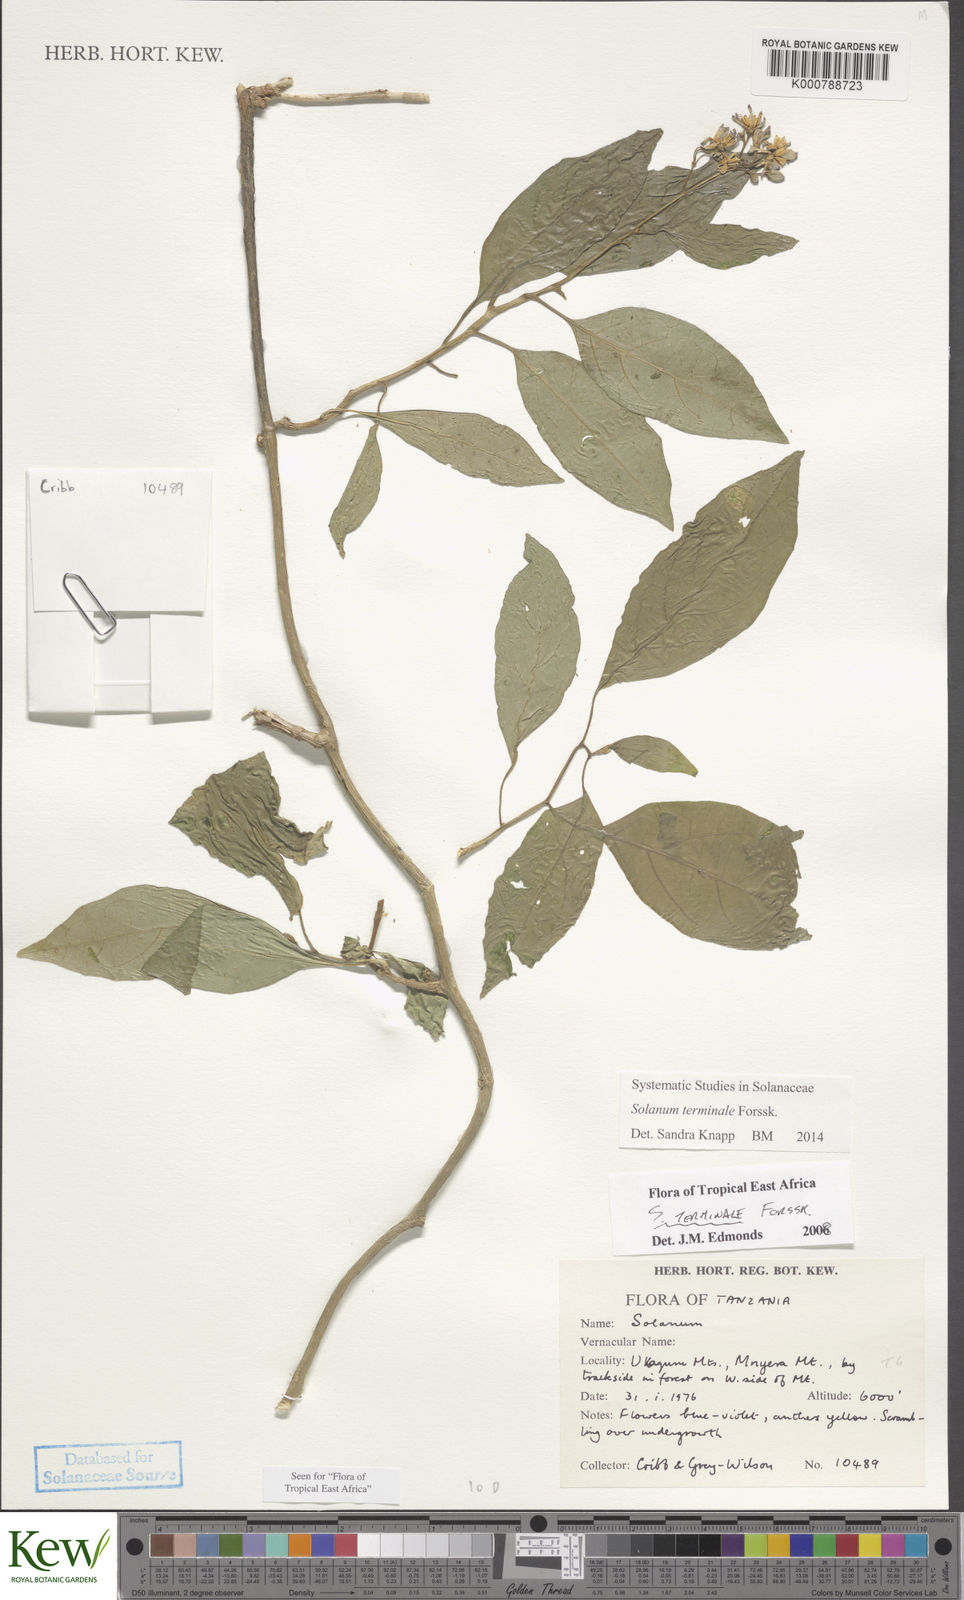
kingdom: Plantae
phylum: Tracheophyta
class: Magnoliopsida
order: Solanales
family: Solanaceae
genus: Solanum
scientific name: Solanum terminale
